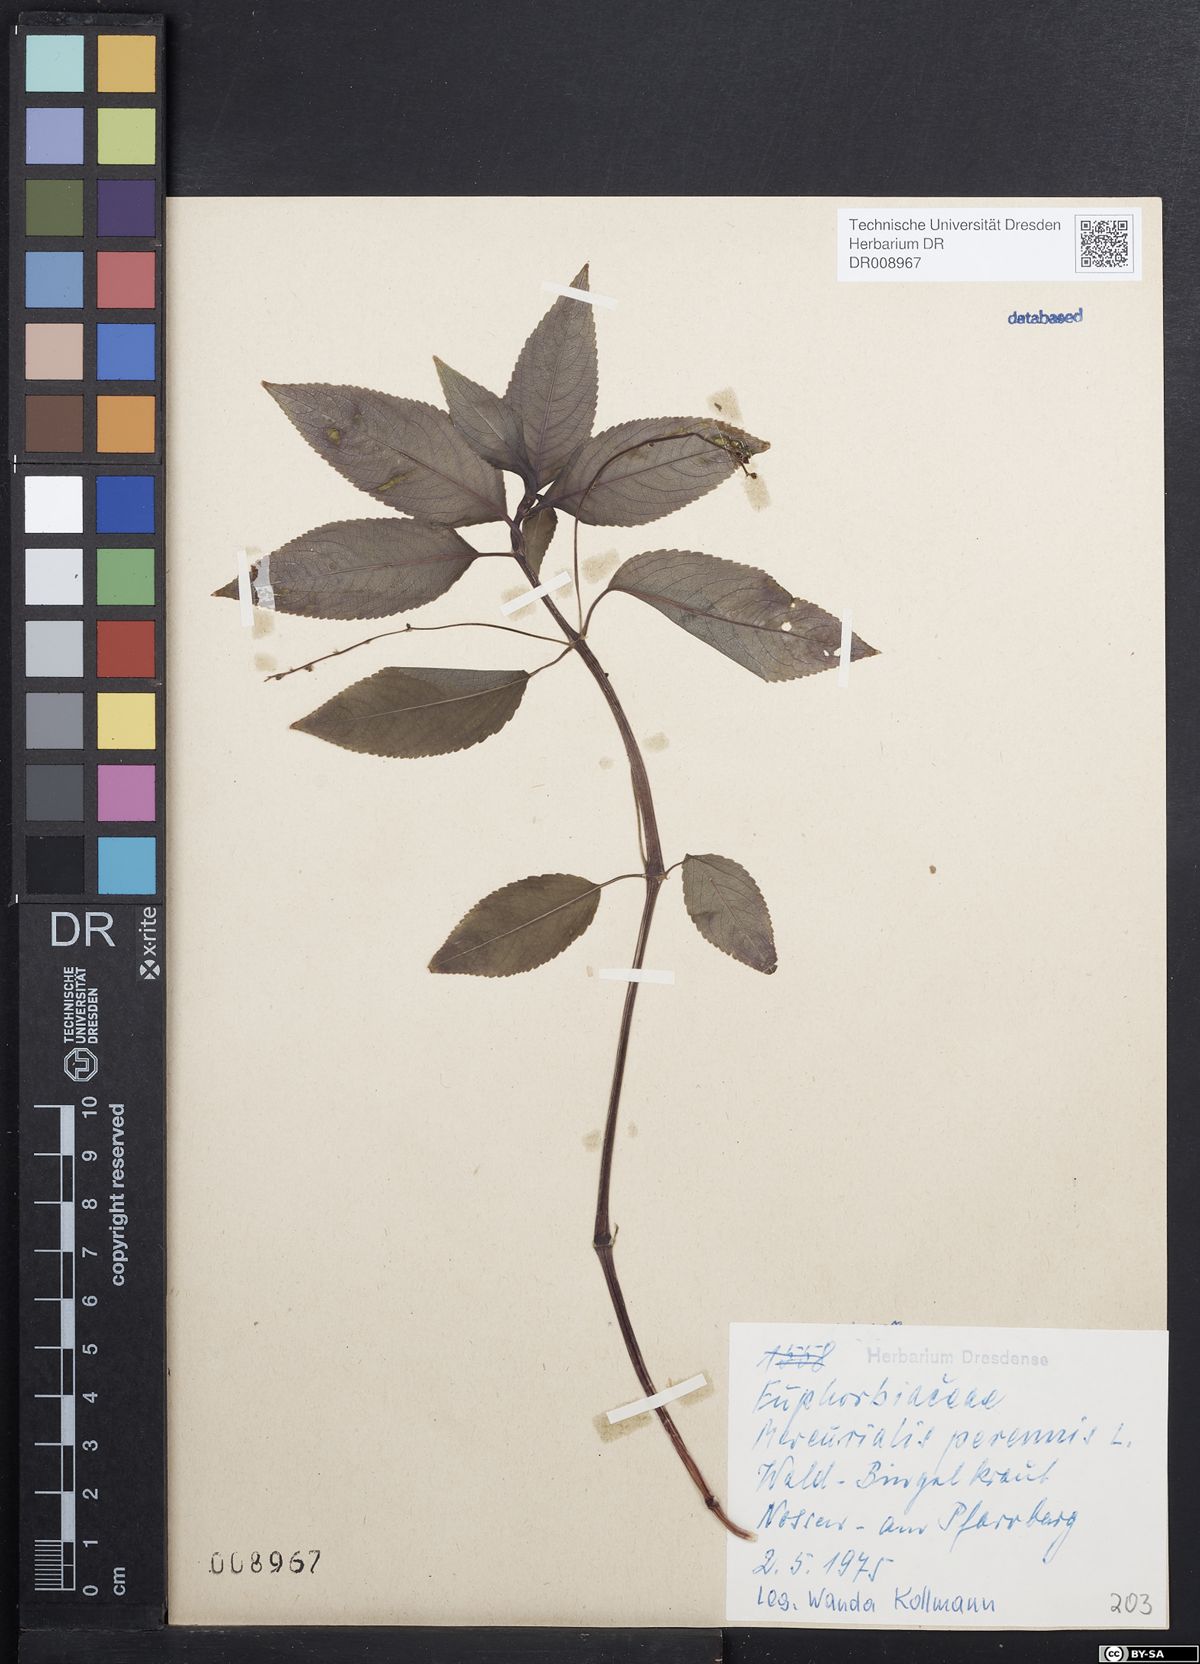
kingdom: Plantae
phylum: Tracheophyta
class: Magnoliopsida
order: Malpighiales
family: Euphorbiaceae
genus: Mercurialis
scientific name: Mercurialis perennis
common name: Dog mercury
